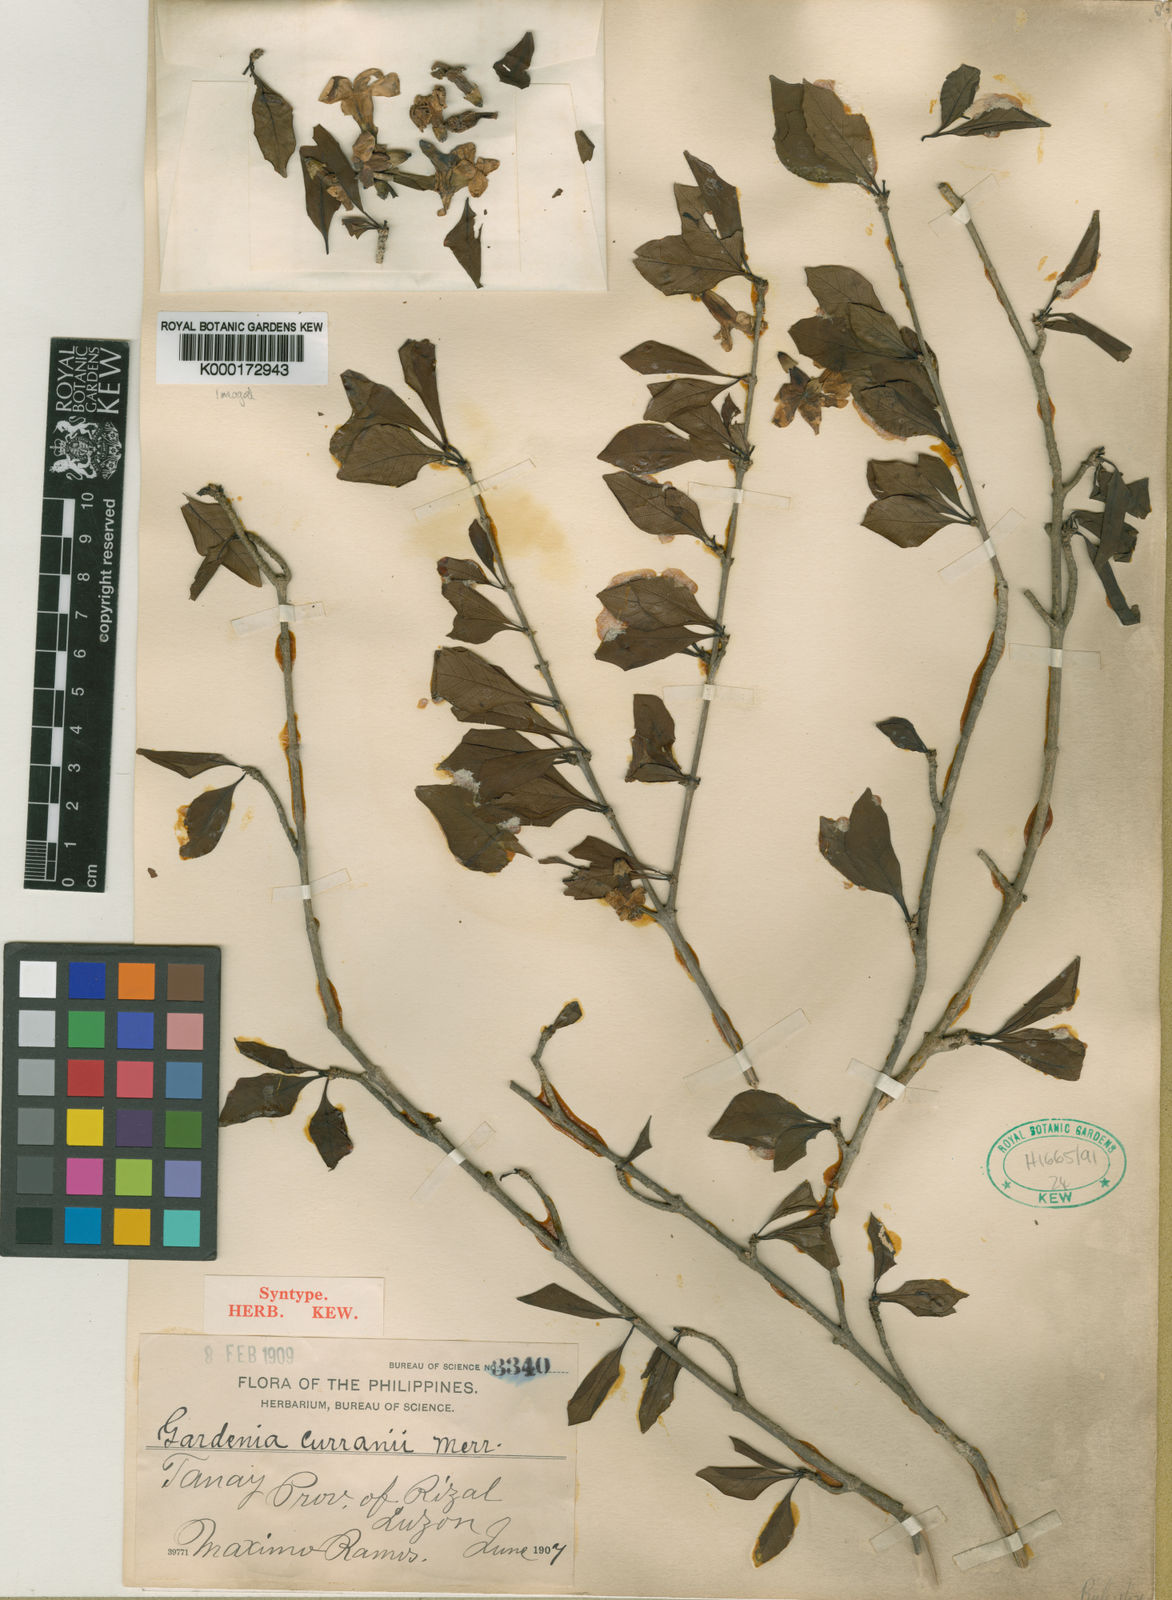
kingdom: Plantae
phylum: Tracheophyta
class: Magnoliopsida
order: Gentianales
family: Rubiaceae
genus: Ceriscoides
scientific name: Ceriscoides curranii
